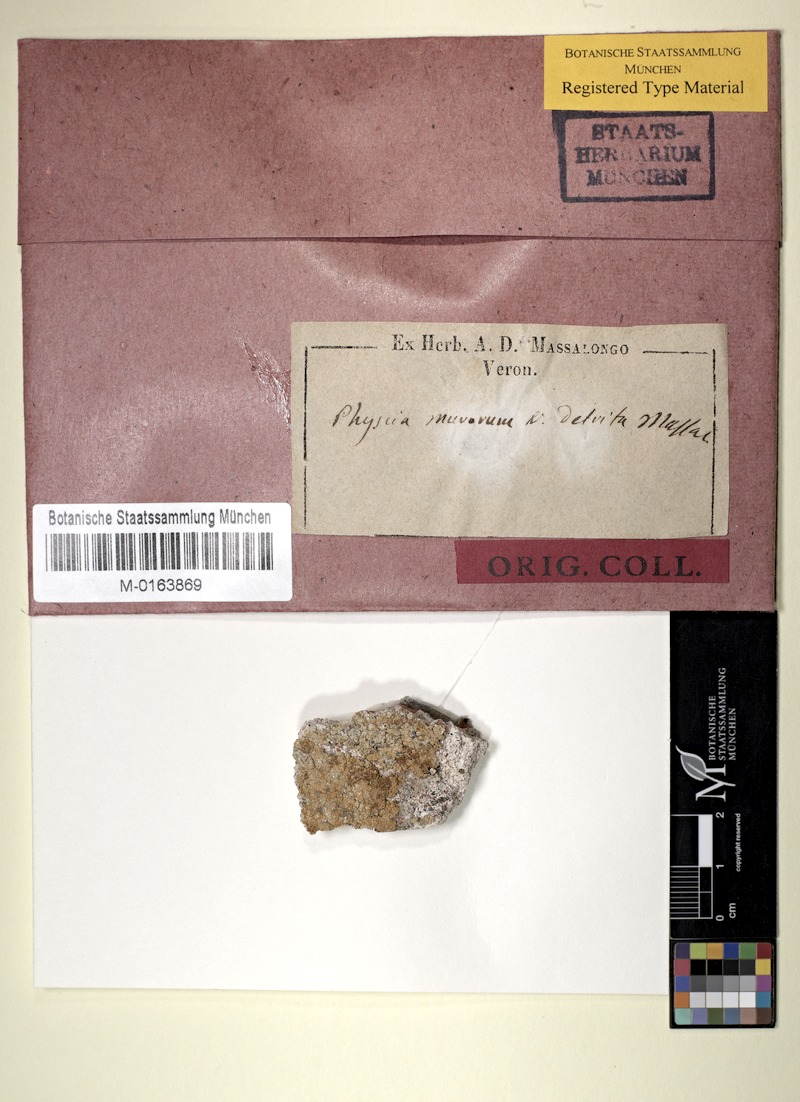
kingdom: Fungi
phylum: Ascomycota
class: Lecanoromycetes
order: Teloschistales
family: Teloschistaceae
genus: Variospora
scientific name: Variospora flavescens
